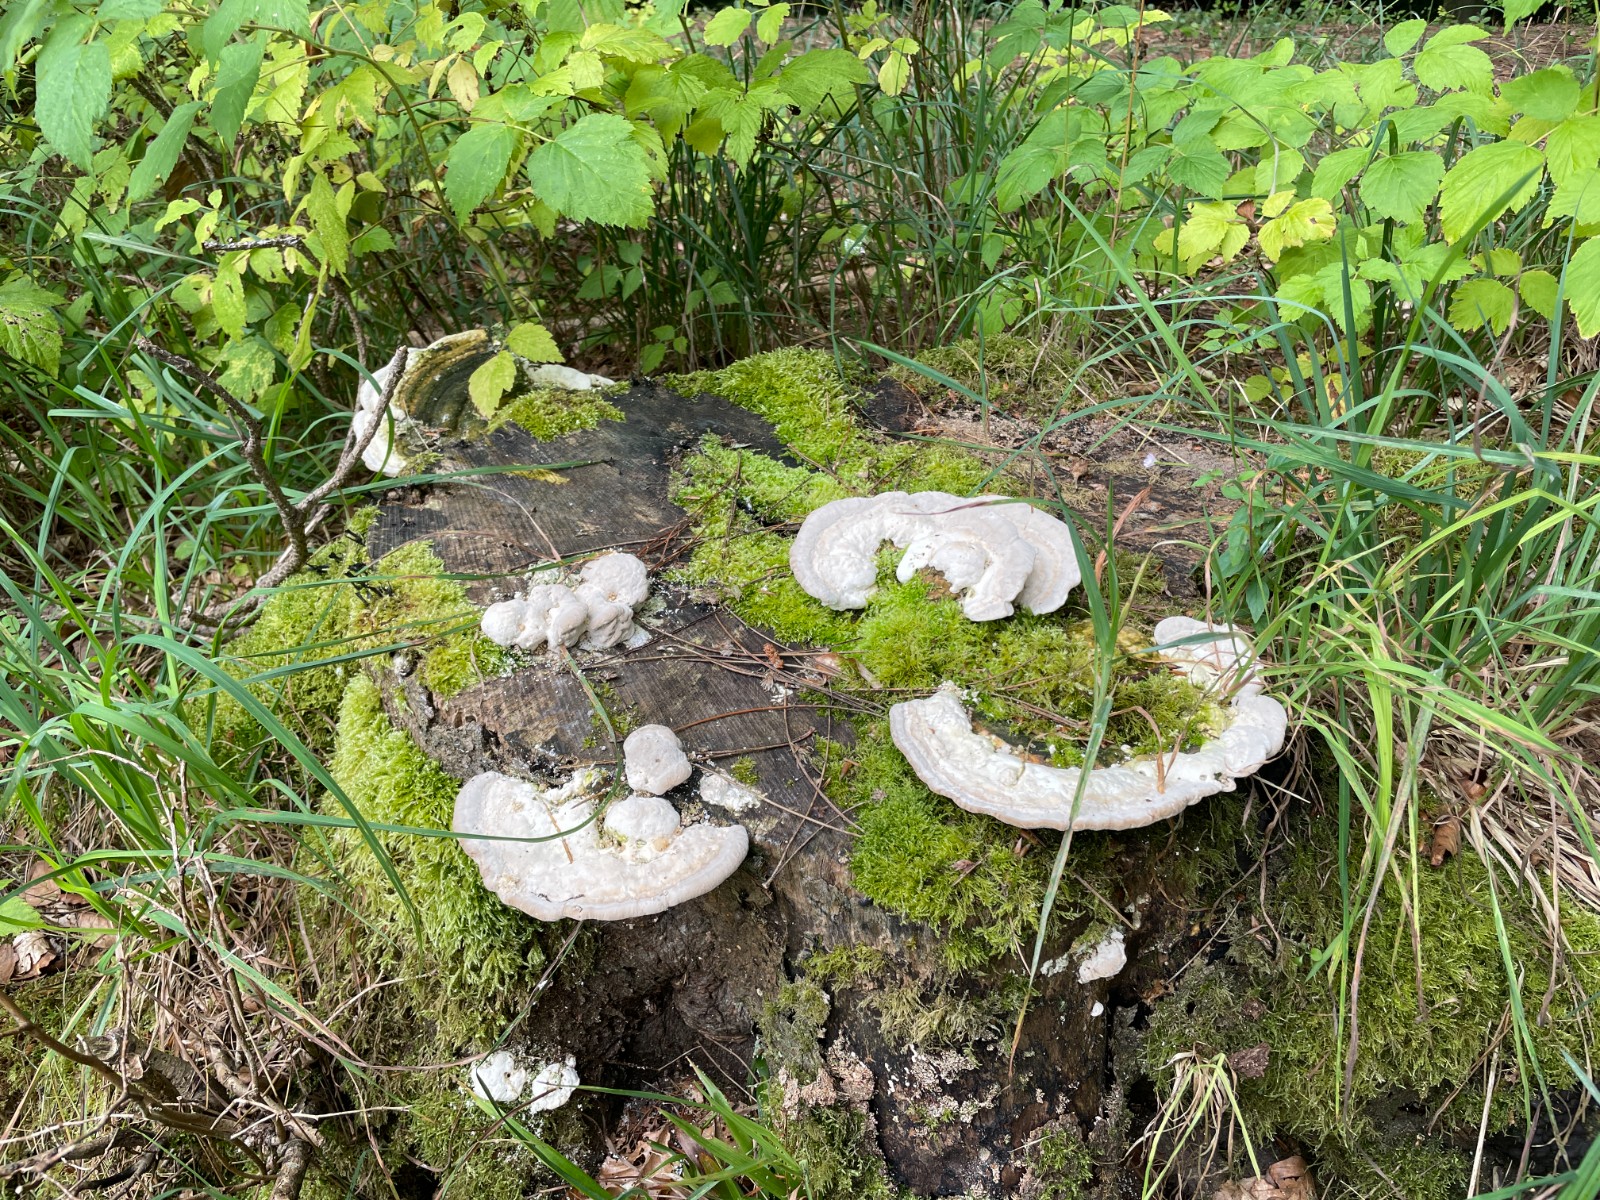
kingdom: Fungi
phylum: Basidiomycota
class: Agaricomycetes
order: Polyporales
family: Polyporaceae
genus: Trametes
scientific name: Trametes gibbosa
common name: puklet læderporesvamp
